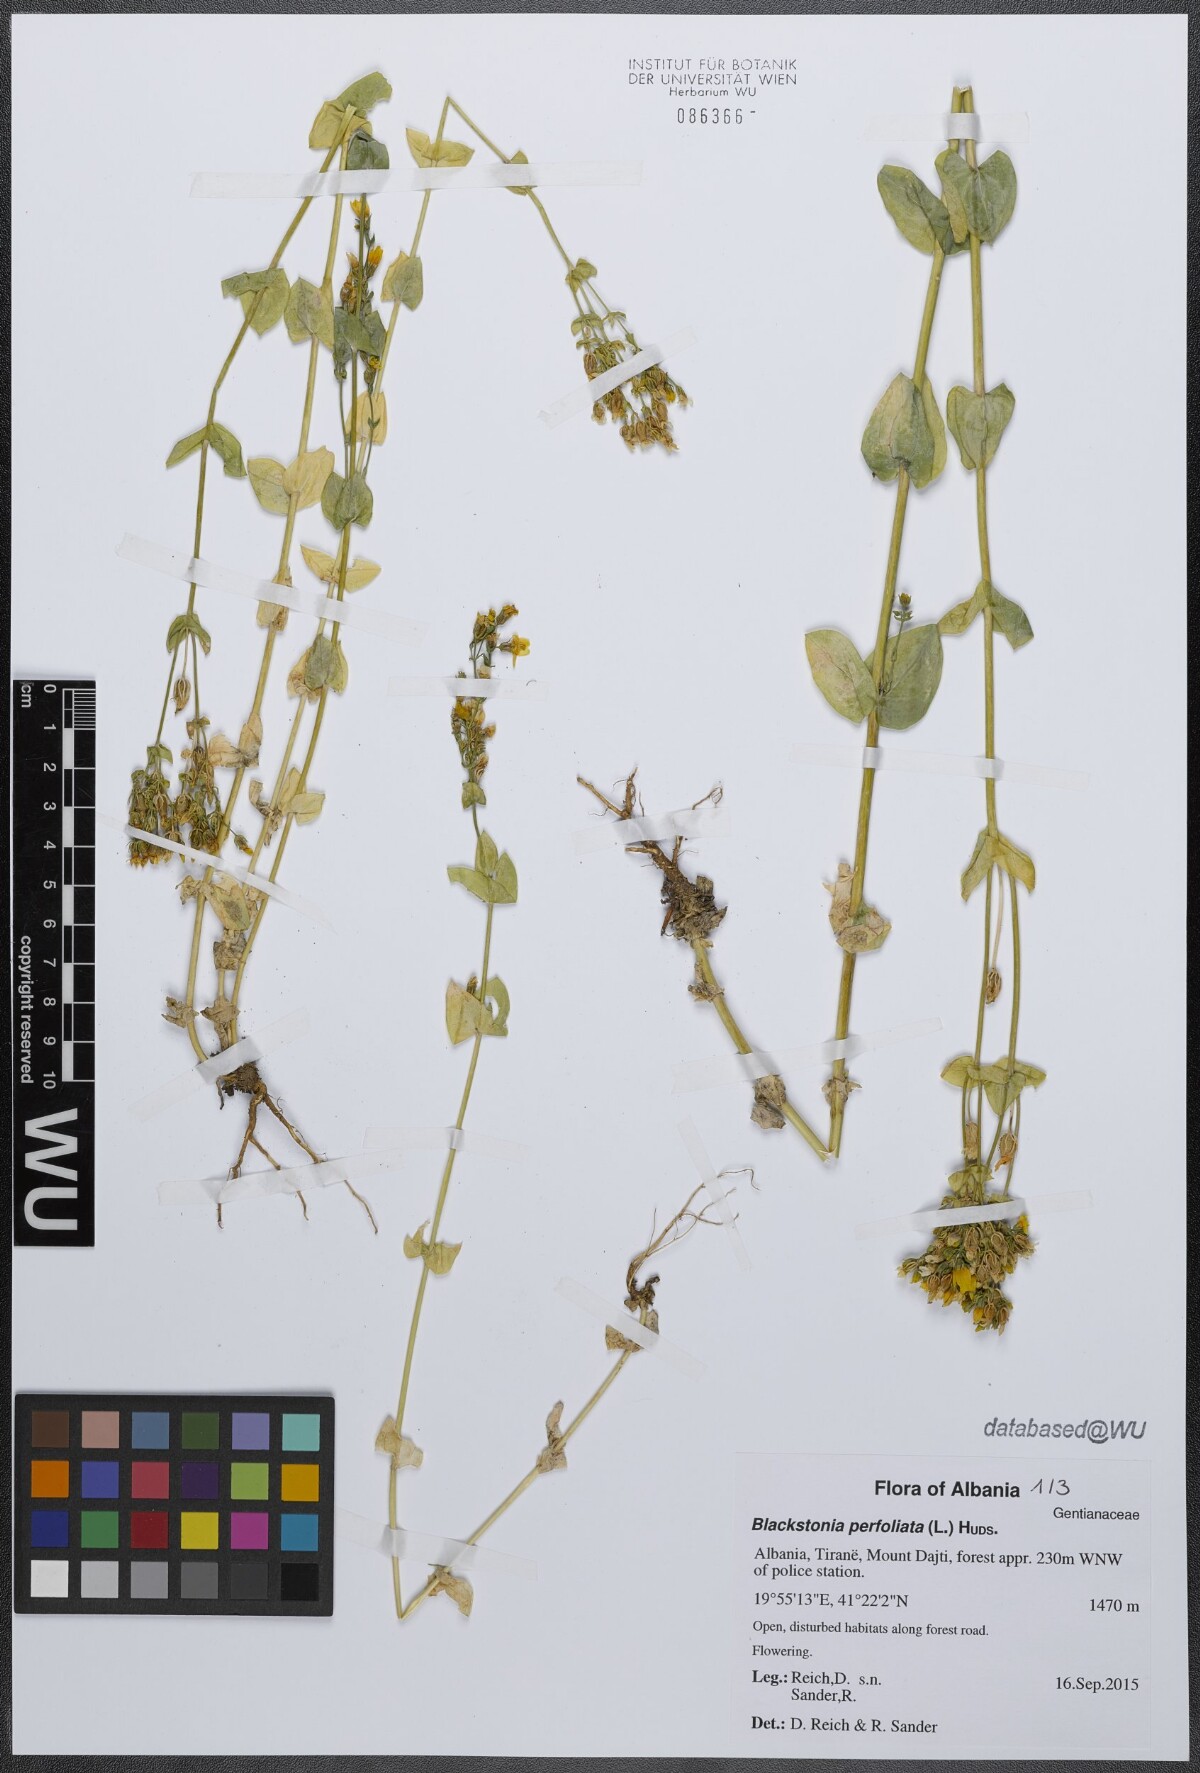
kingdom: Plantae
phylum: Tracheophyta
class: Magnoliopsida
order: Gentianales
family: Gentianaceae
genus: Blackstonia
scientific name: Blackstonia perfoliata
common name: Yellow-wort
